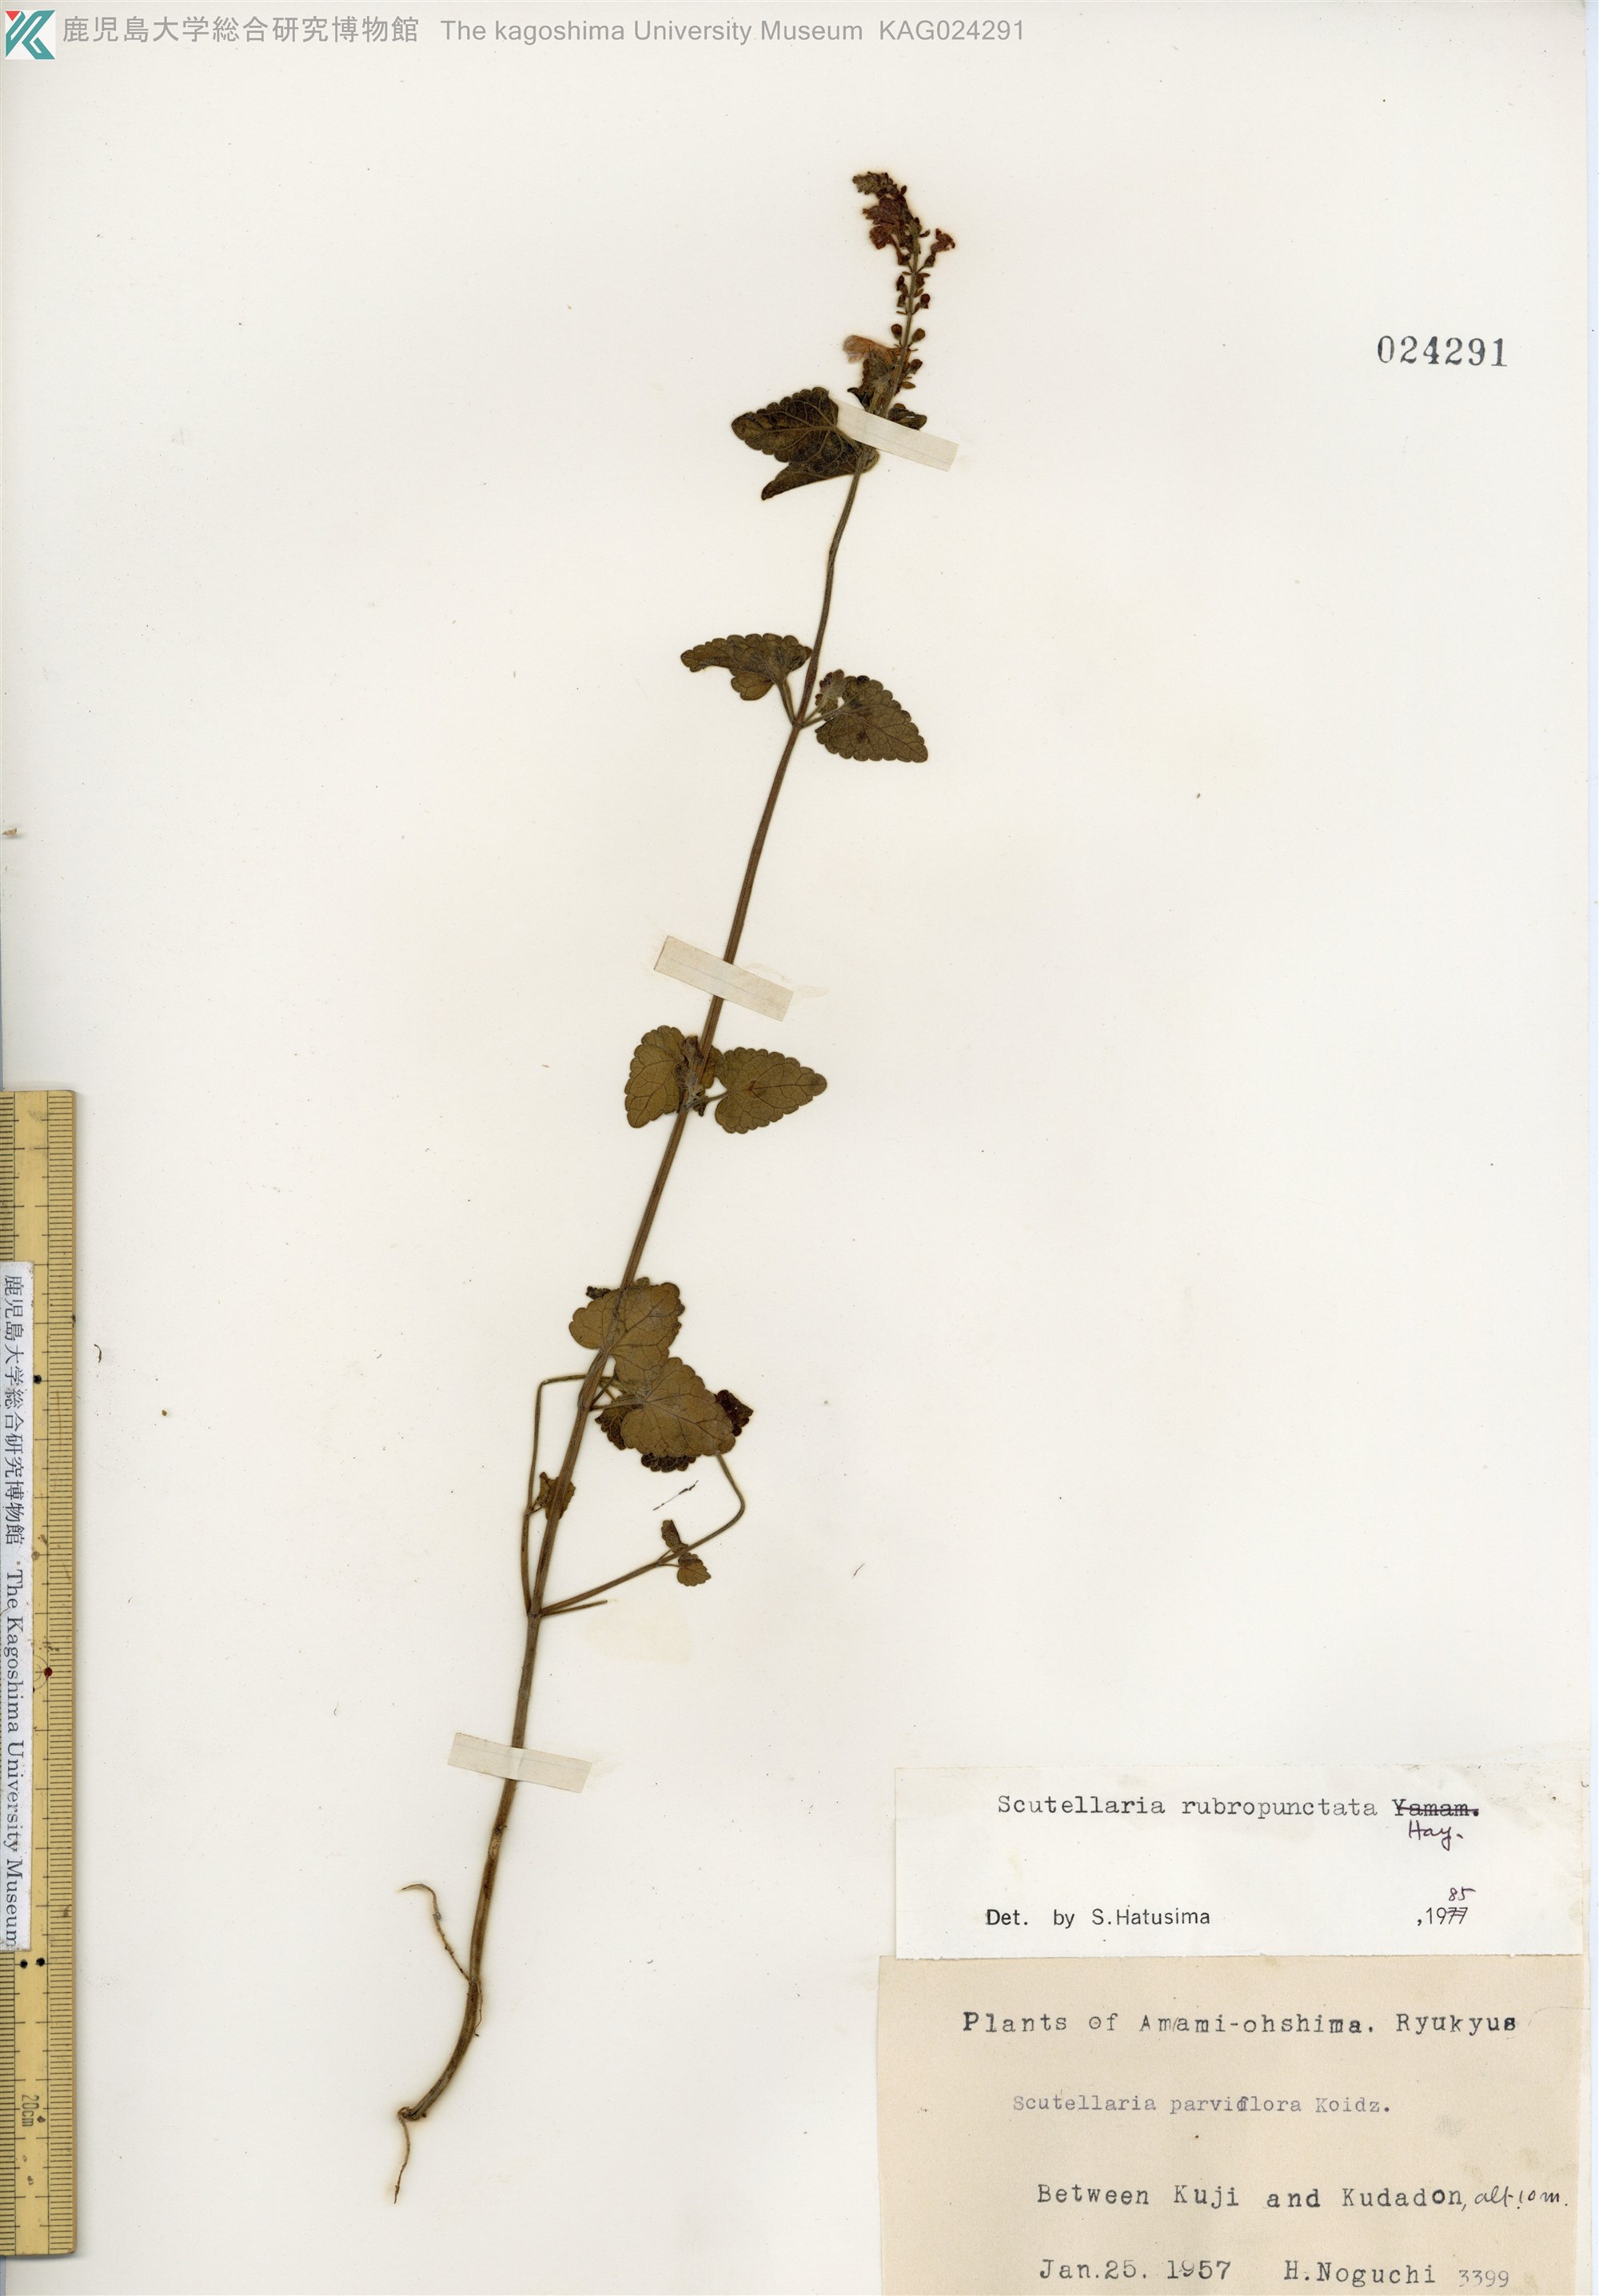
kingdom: Plantae
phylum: Tracheophyta
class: Magnoliopsida
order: Lamiales
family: Lamiaceae
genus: Scutellaria
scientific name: Scutellaria rubropunctata
